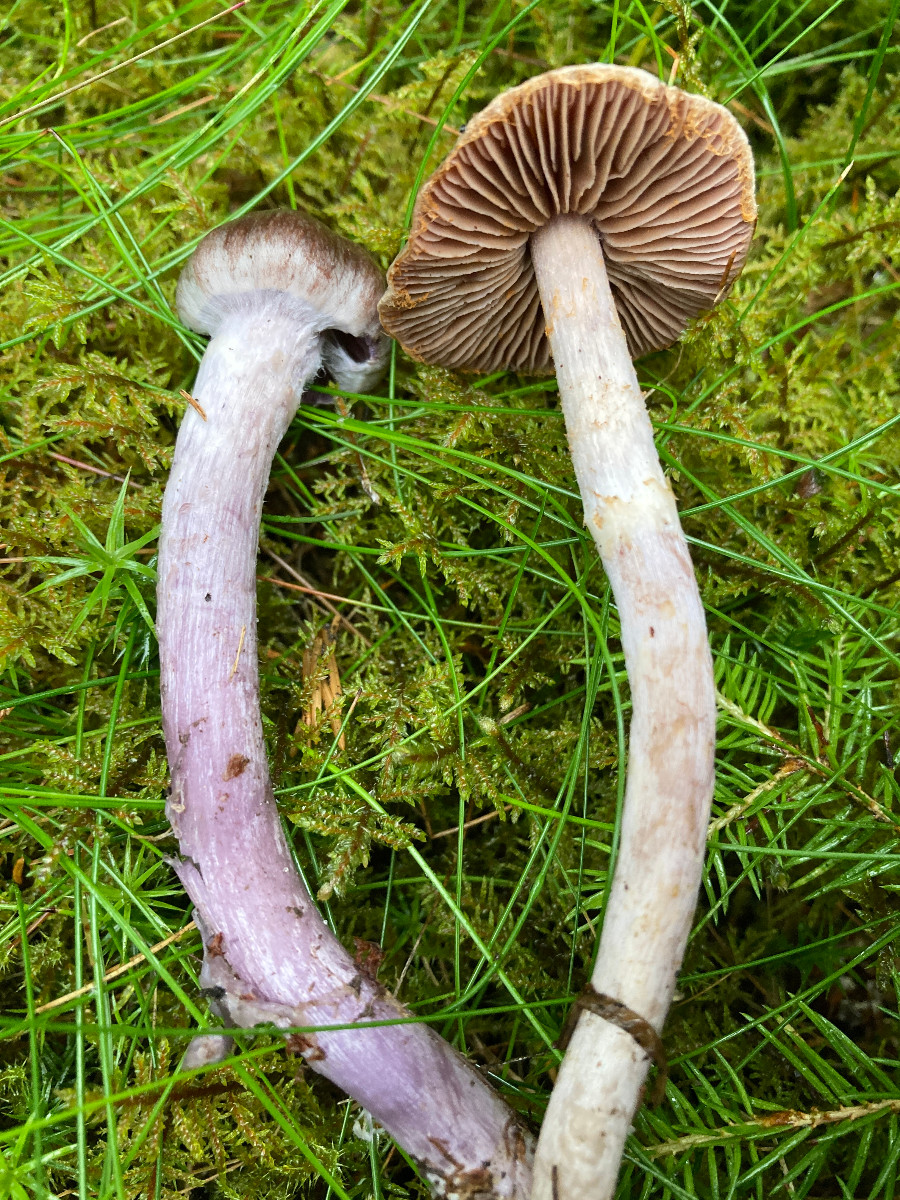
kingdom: Fungi
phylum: Basidiomycota
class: Agaricomycetes
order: Agaricales
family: Cortinariaceae
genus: Cortinarius
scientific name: Cortinarius
